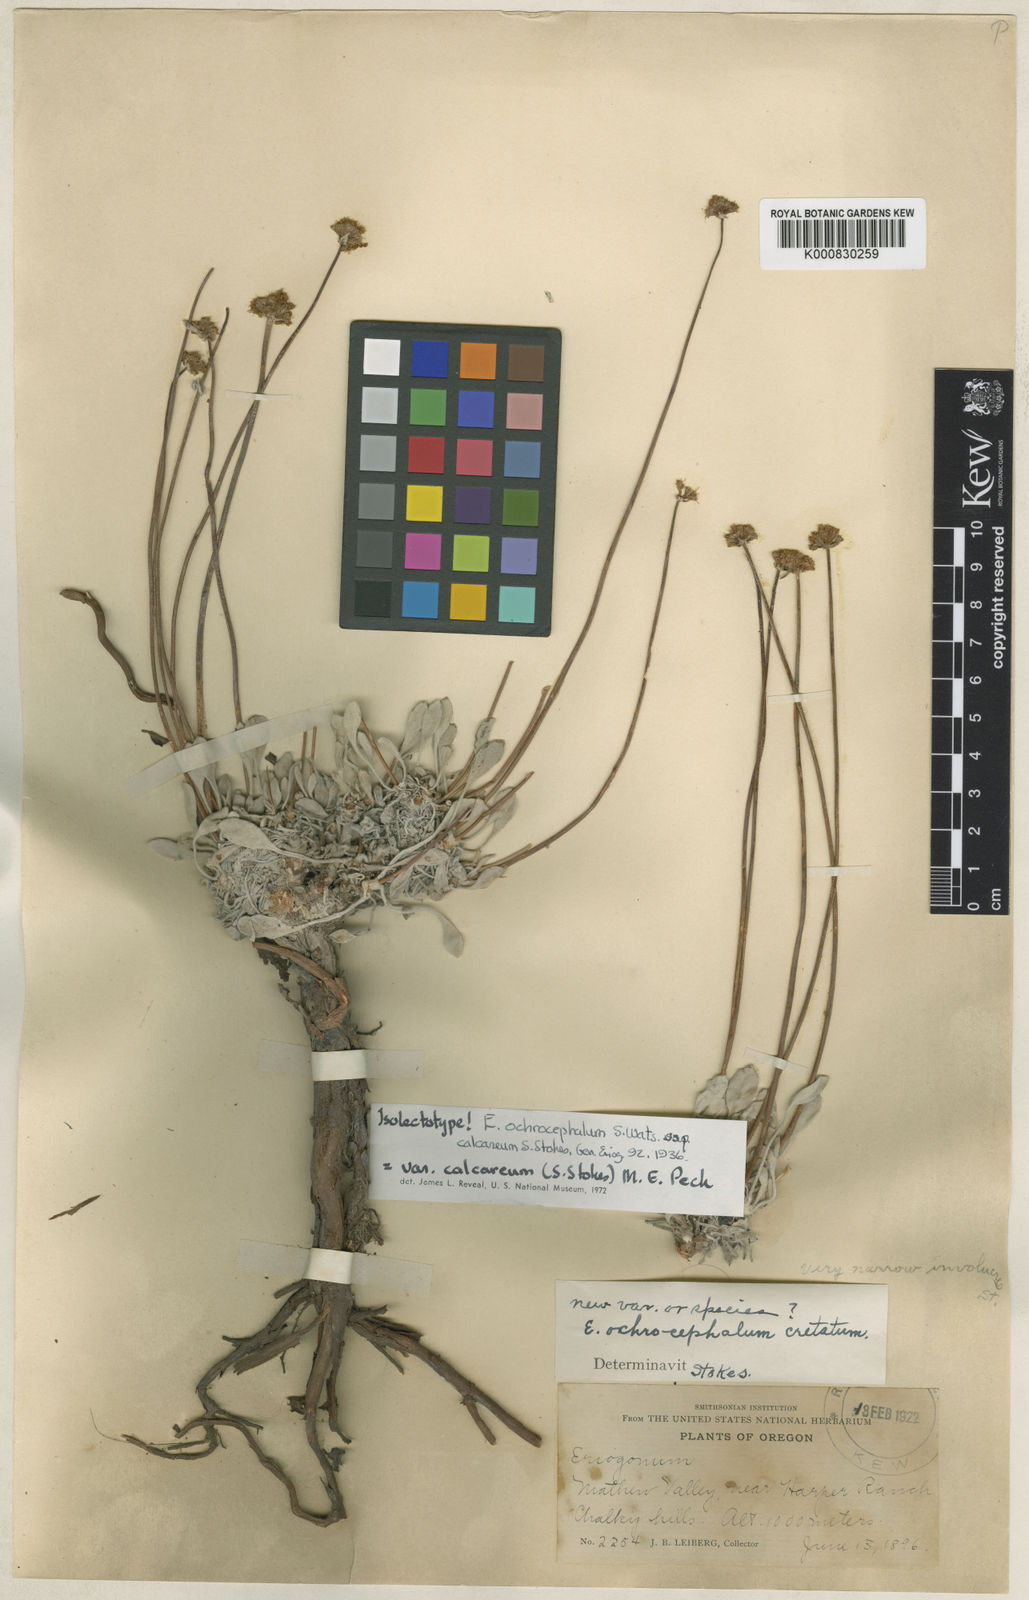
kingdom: Plantae
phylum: Tracheophyta
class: Magnoliopsida
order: Caryophyllales
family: Polygonaceae
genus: Eriogonum
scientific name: Eriogonum calcareum
